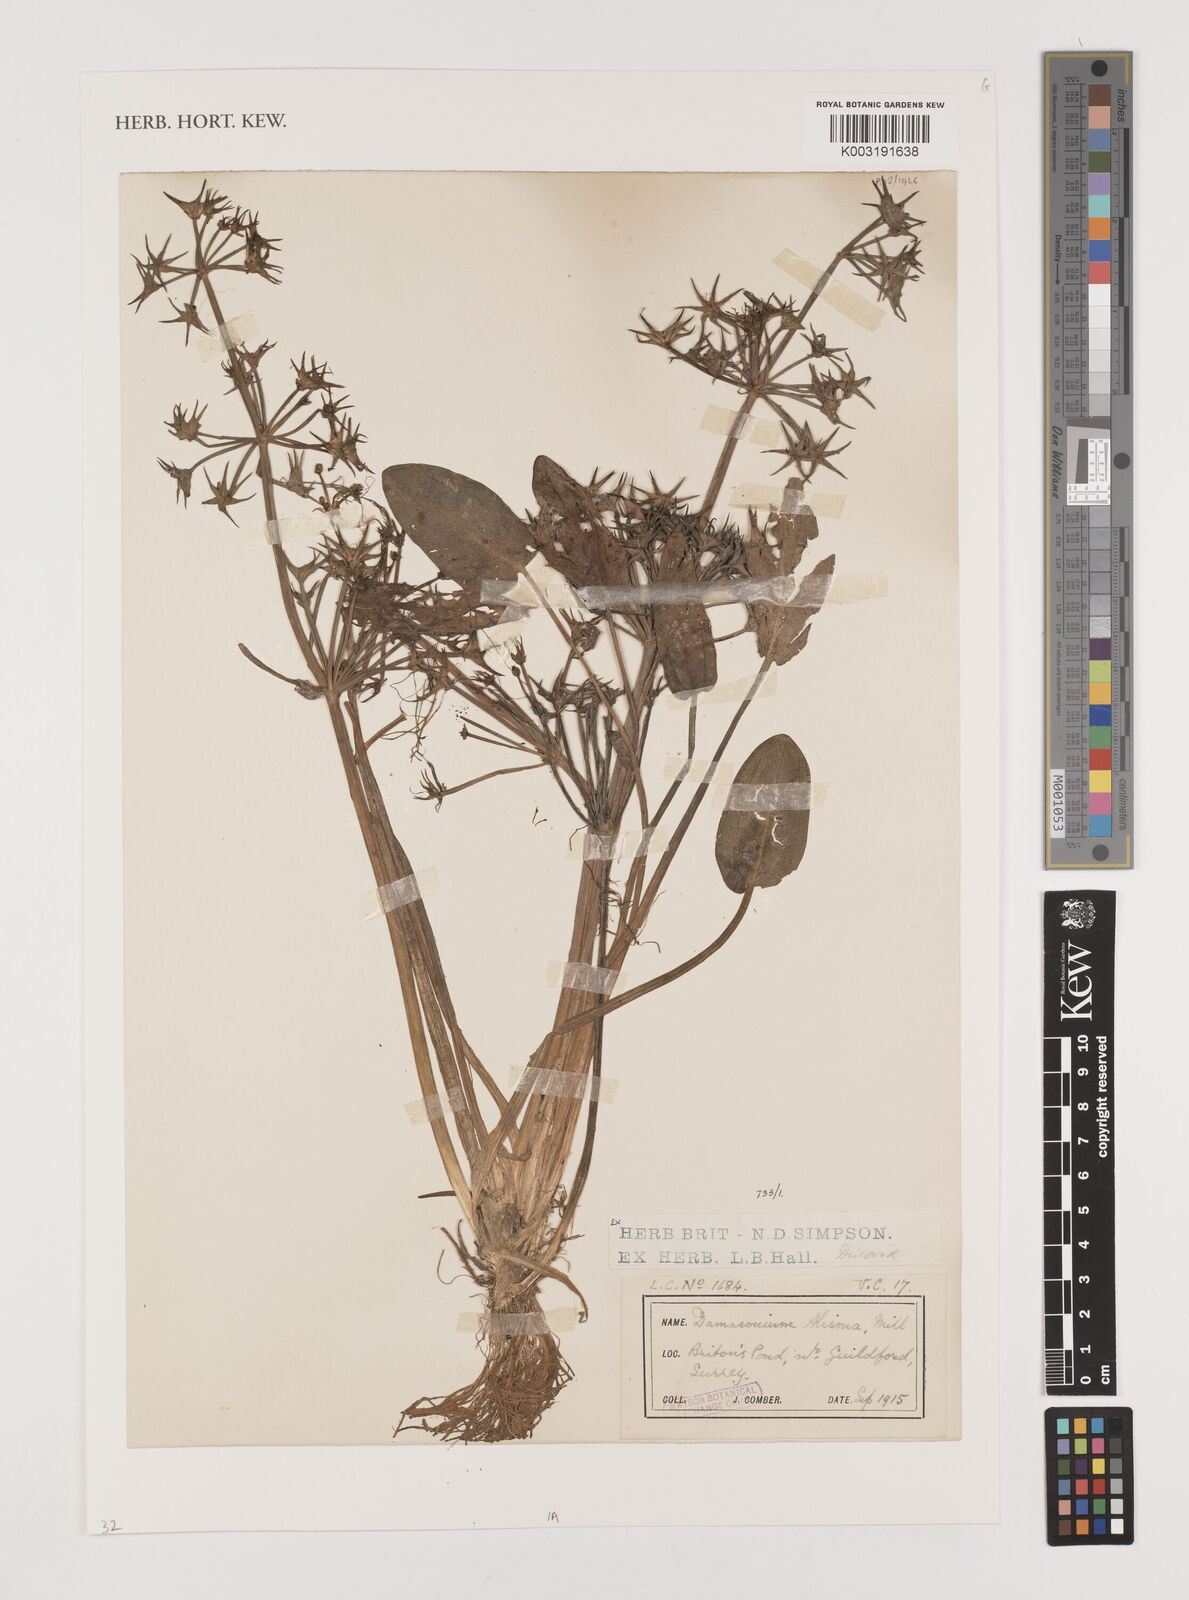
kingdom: Plantae
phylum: Tracheophyta
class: Liliopsida
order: Alismatales
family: Alismataceae
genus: Damasonium
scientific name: Damasonium alisma
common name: Starfruit
